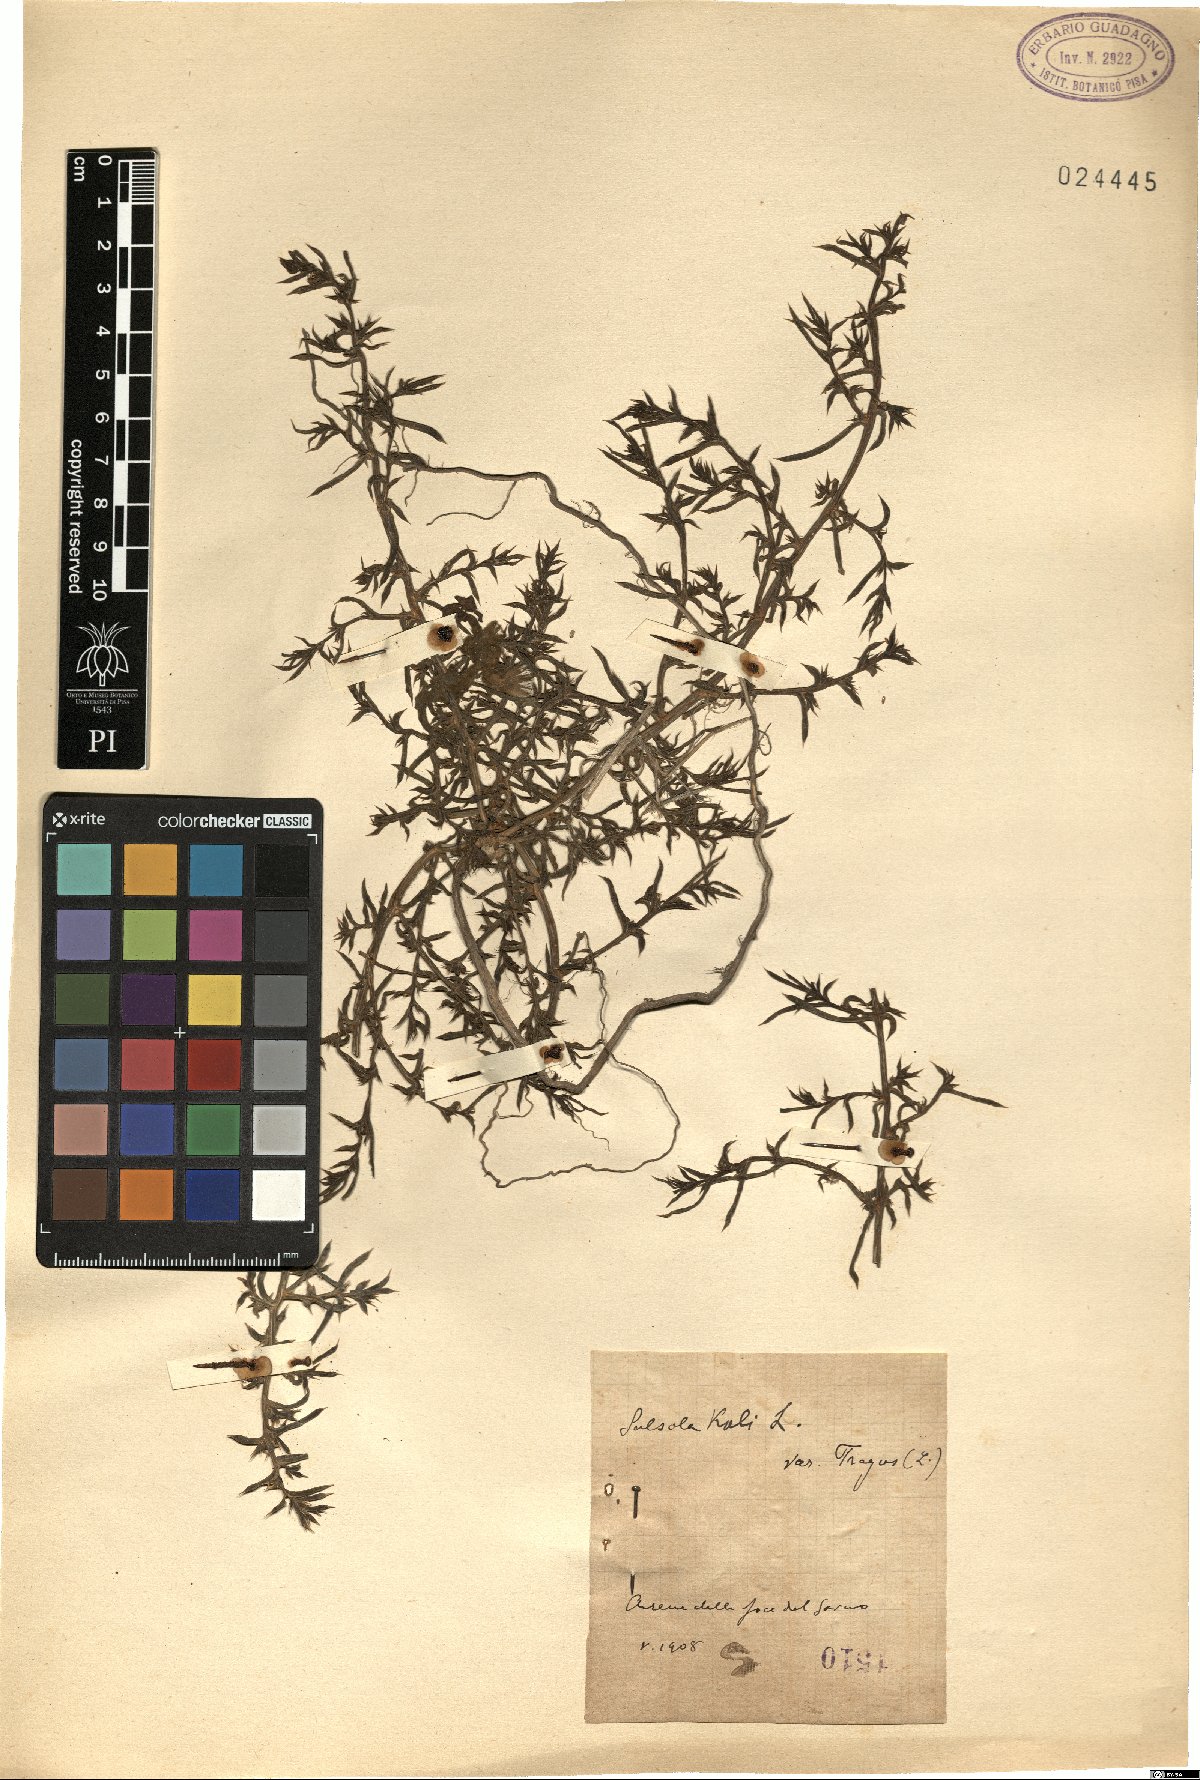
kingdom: Plantae
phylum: Tracheophyta
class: Magnoliopsida
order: Caryophyllales
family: Amaranthaceae
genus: Salsola
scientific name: Salsola tragus
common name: Prickly russian thistle
